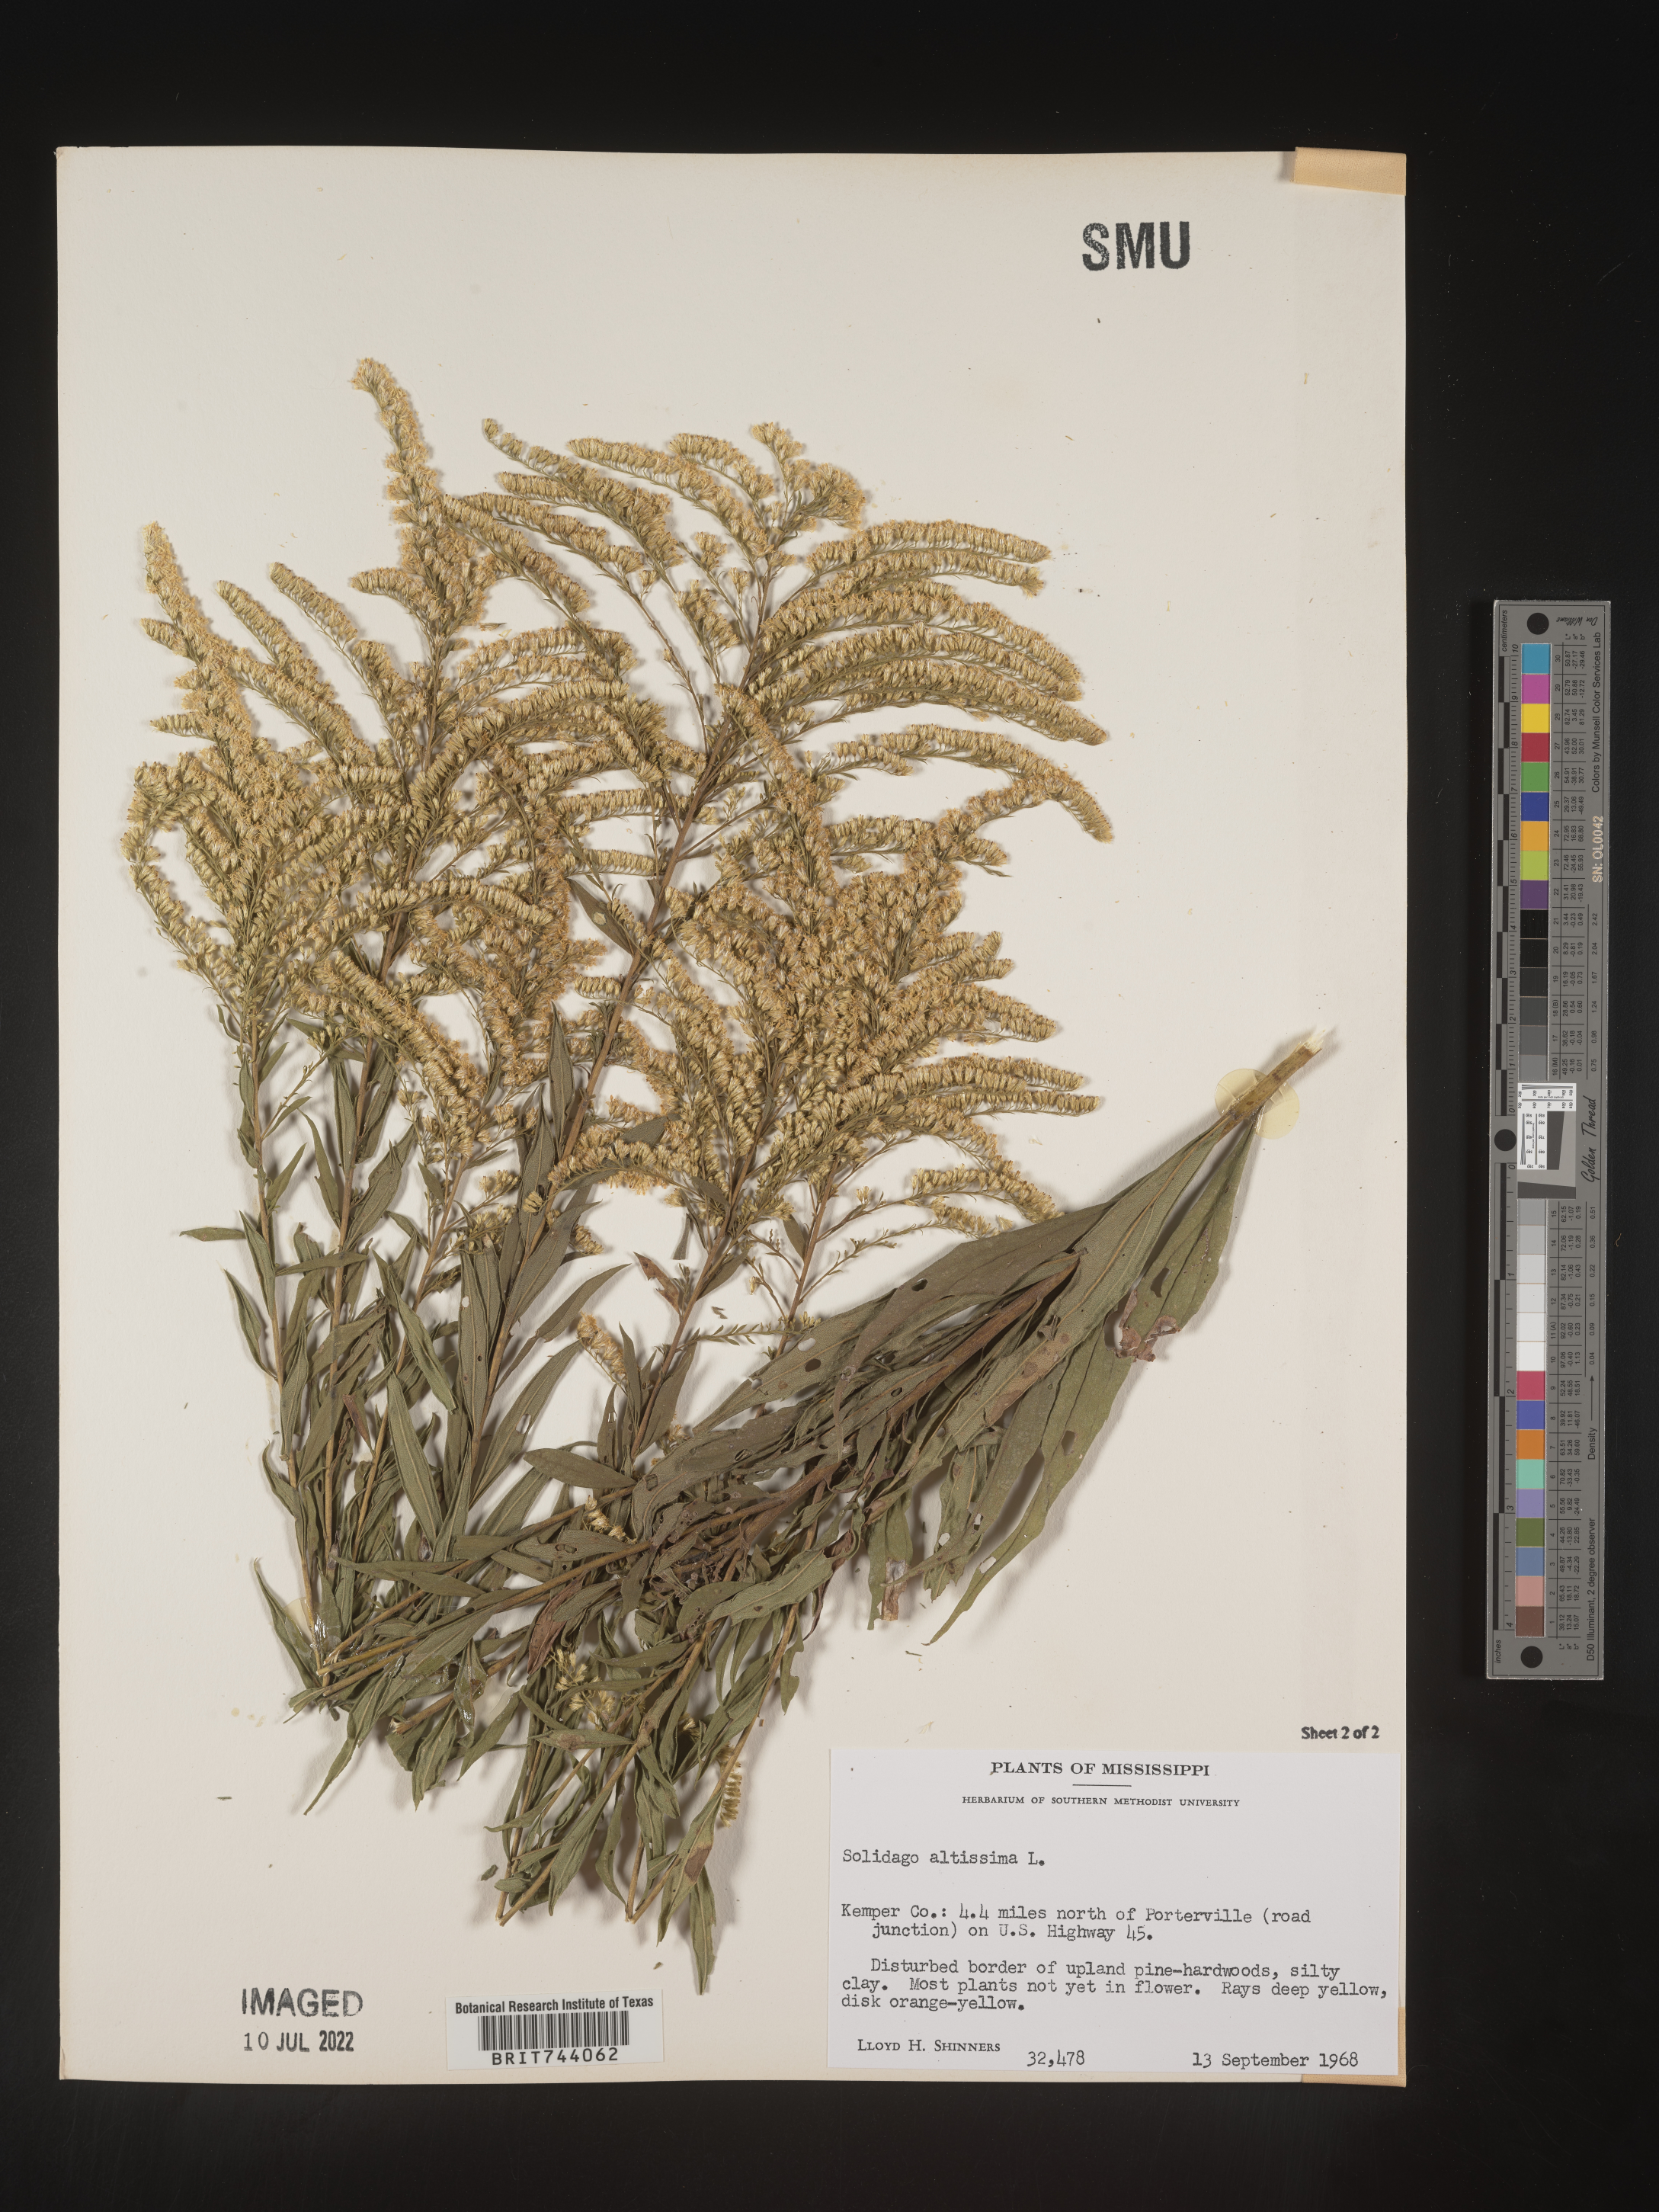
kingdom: Plantae
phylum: Tracheophyta
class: Magnoliopsida
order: Asterales
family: Asteraceae
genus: Solidago
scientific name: Solidago altissima
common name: Late goldenrod
